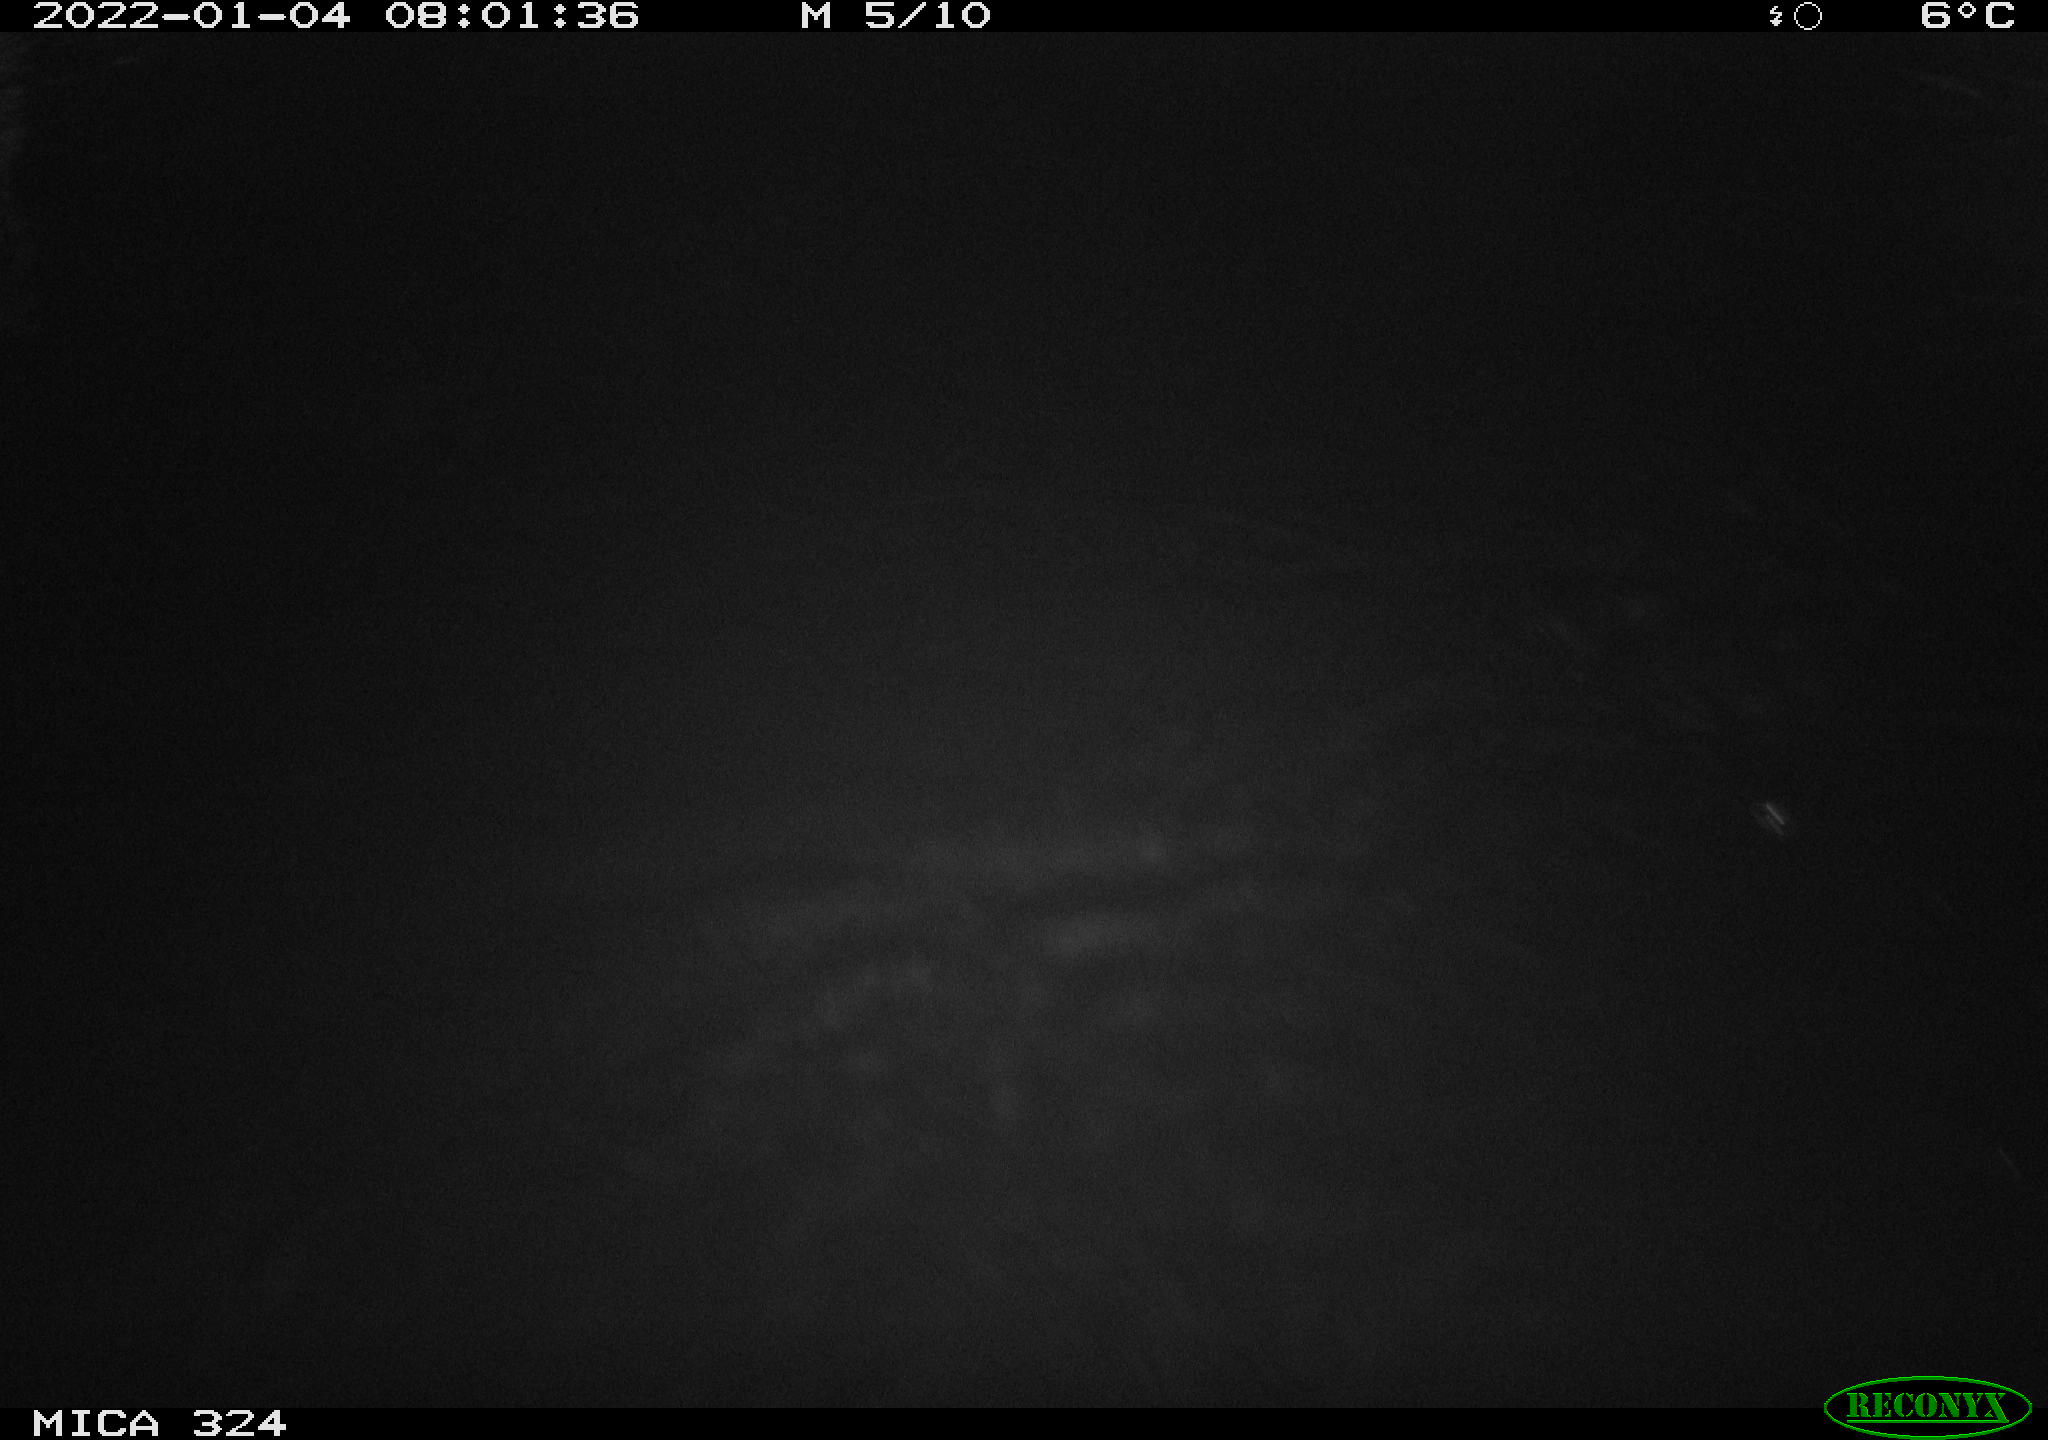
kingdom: Animalia
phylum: Chordata
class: Mammalia
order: Rodentia
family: Cricetidae
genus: Ondatra
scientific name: Ondatra zibethicus
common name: Muskrat
